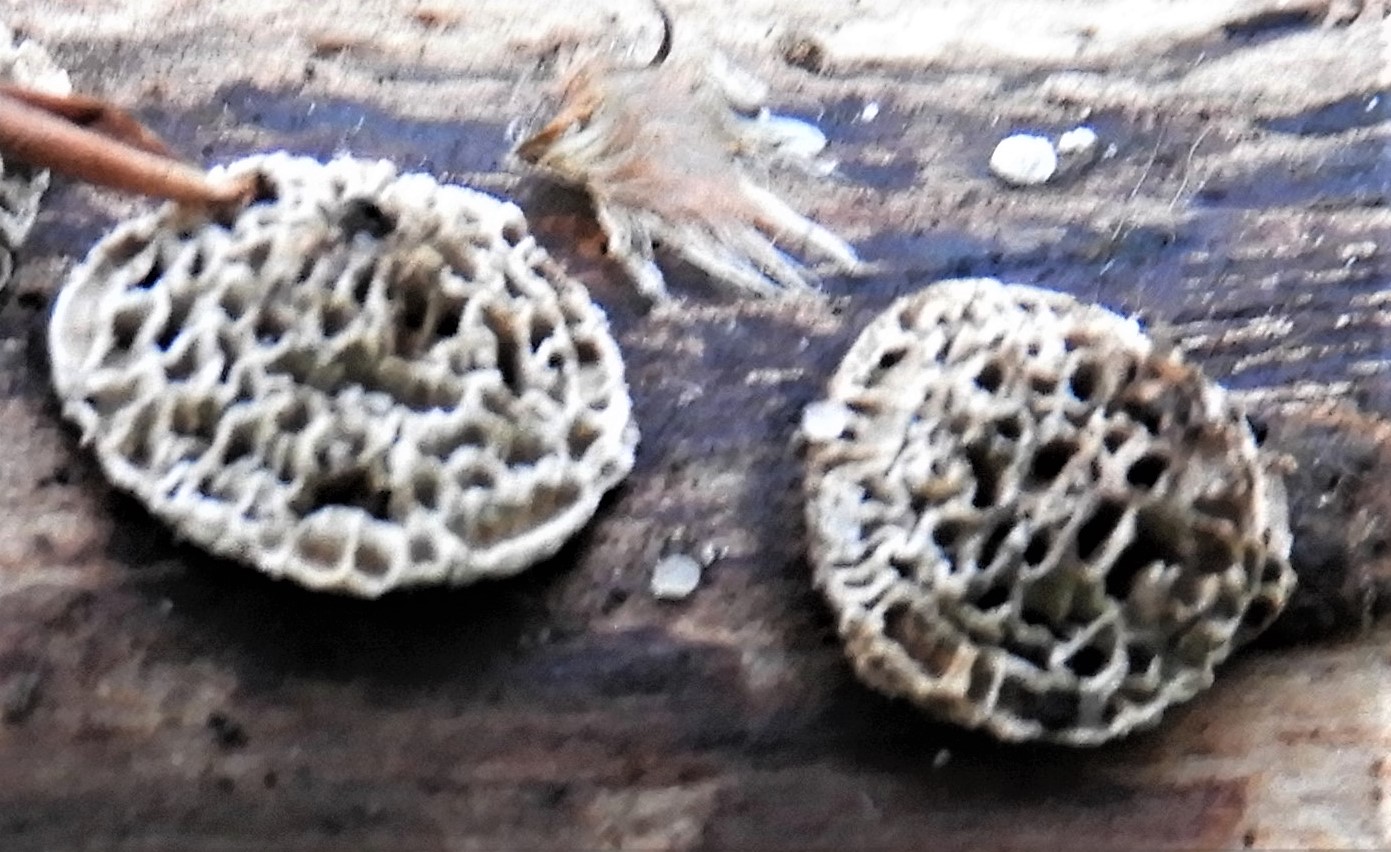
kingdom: Fungi
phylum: Basidiomycota
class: Agaricomycetes
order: Polyporales
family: Polyporaceae
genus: Podofomes
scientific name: Podofomes mollis
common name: blød begporesvamp
